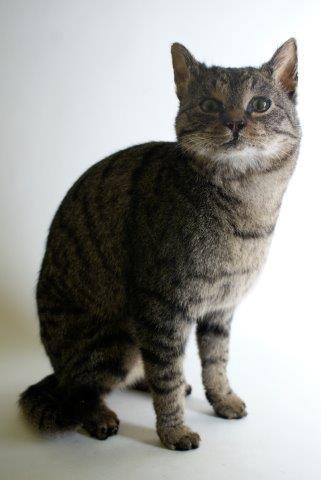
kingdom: Animalia
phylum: Chordata
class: Mammalia
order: Carnivora
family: Felidae
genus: Felis
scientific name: Felis catus
